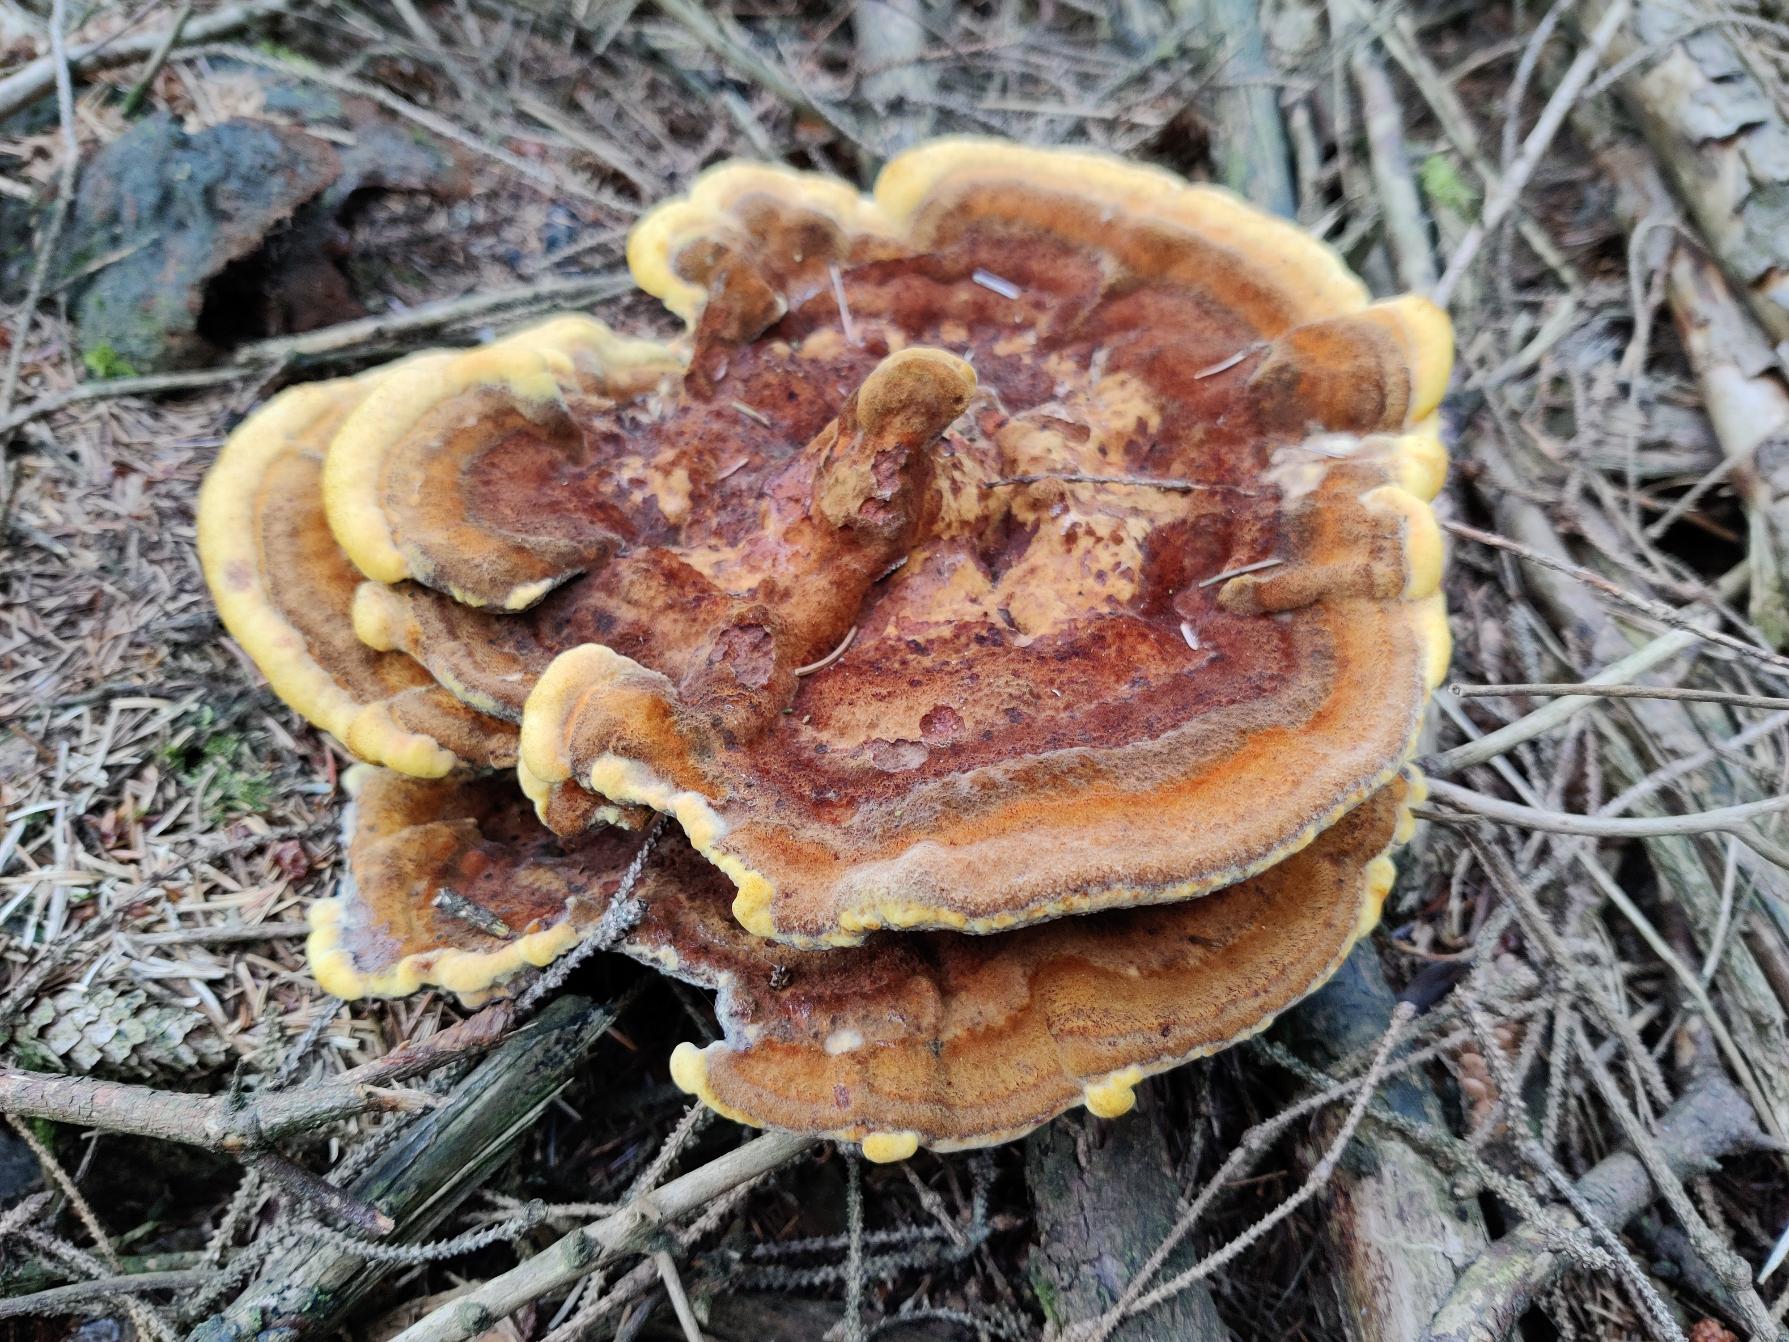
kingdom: Fungi
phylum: Basidiomycota
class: Agaricomycetes
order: Polyporales
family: Laetiporaceae
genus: Phaeolus
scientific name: Phaeolus schweinitzii
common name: Brunporesvamp
